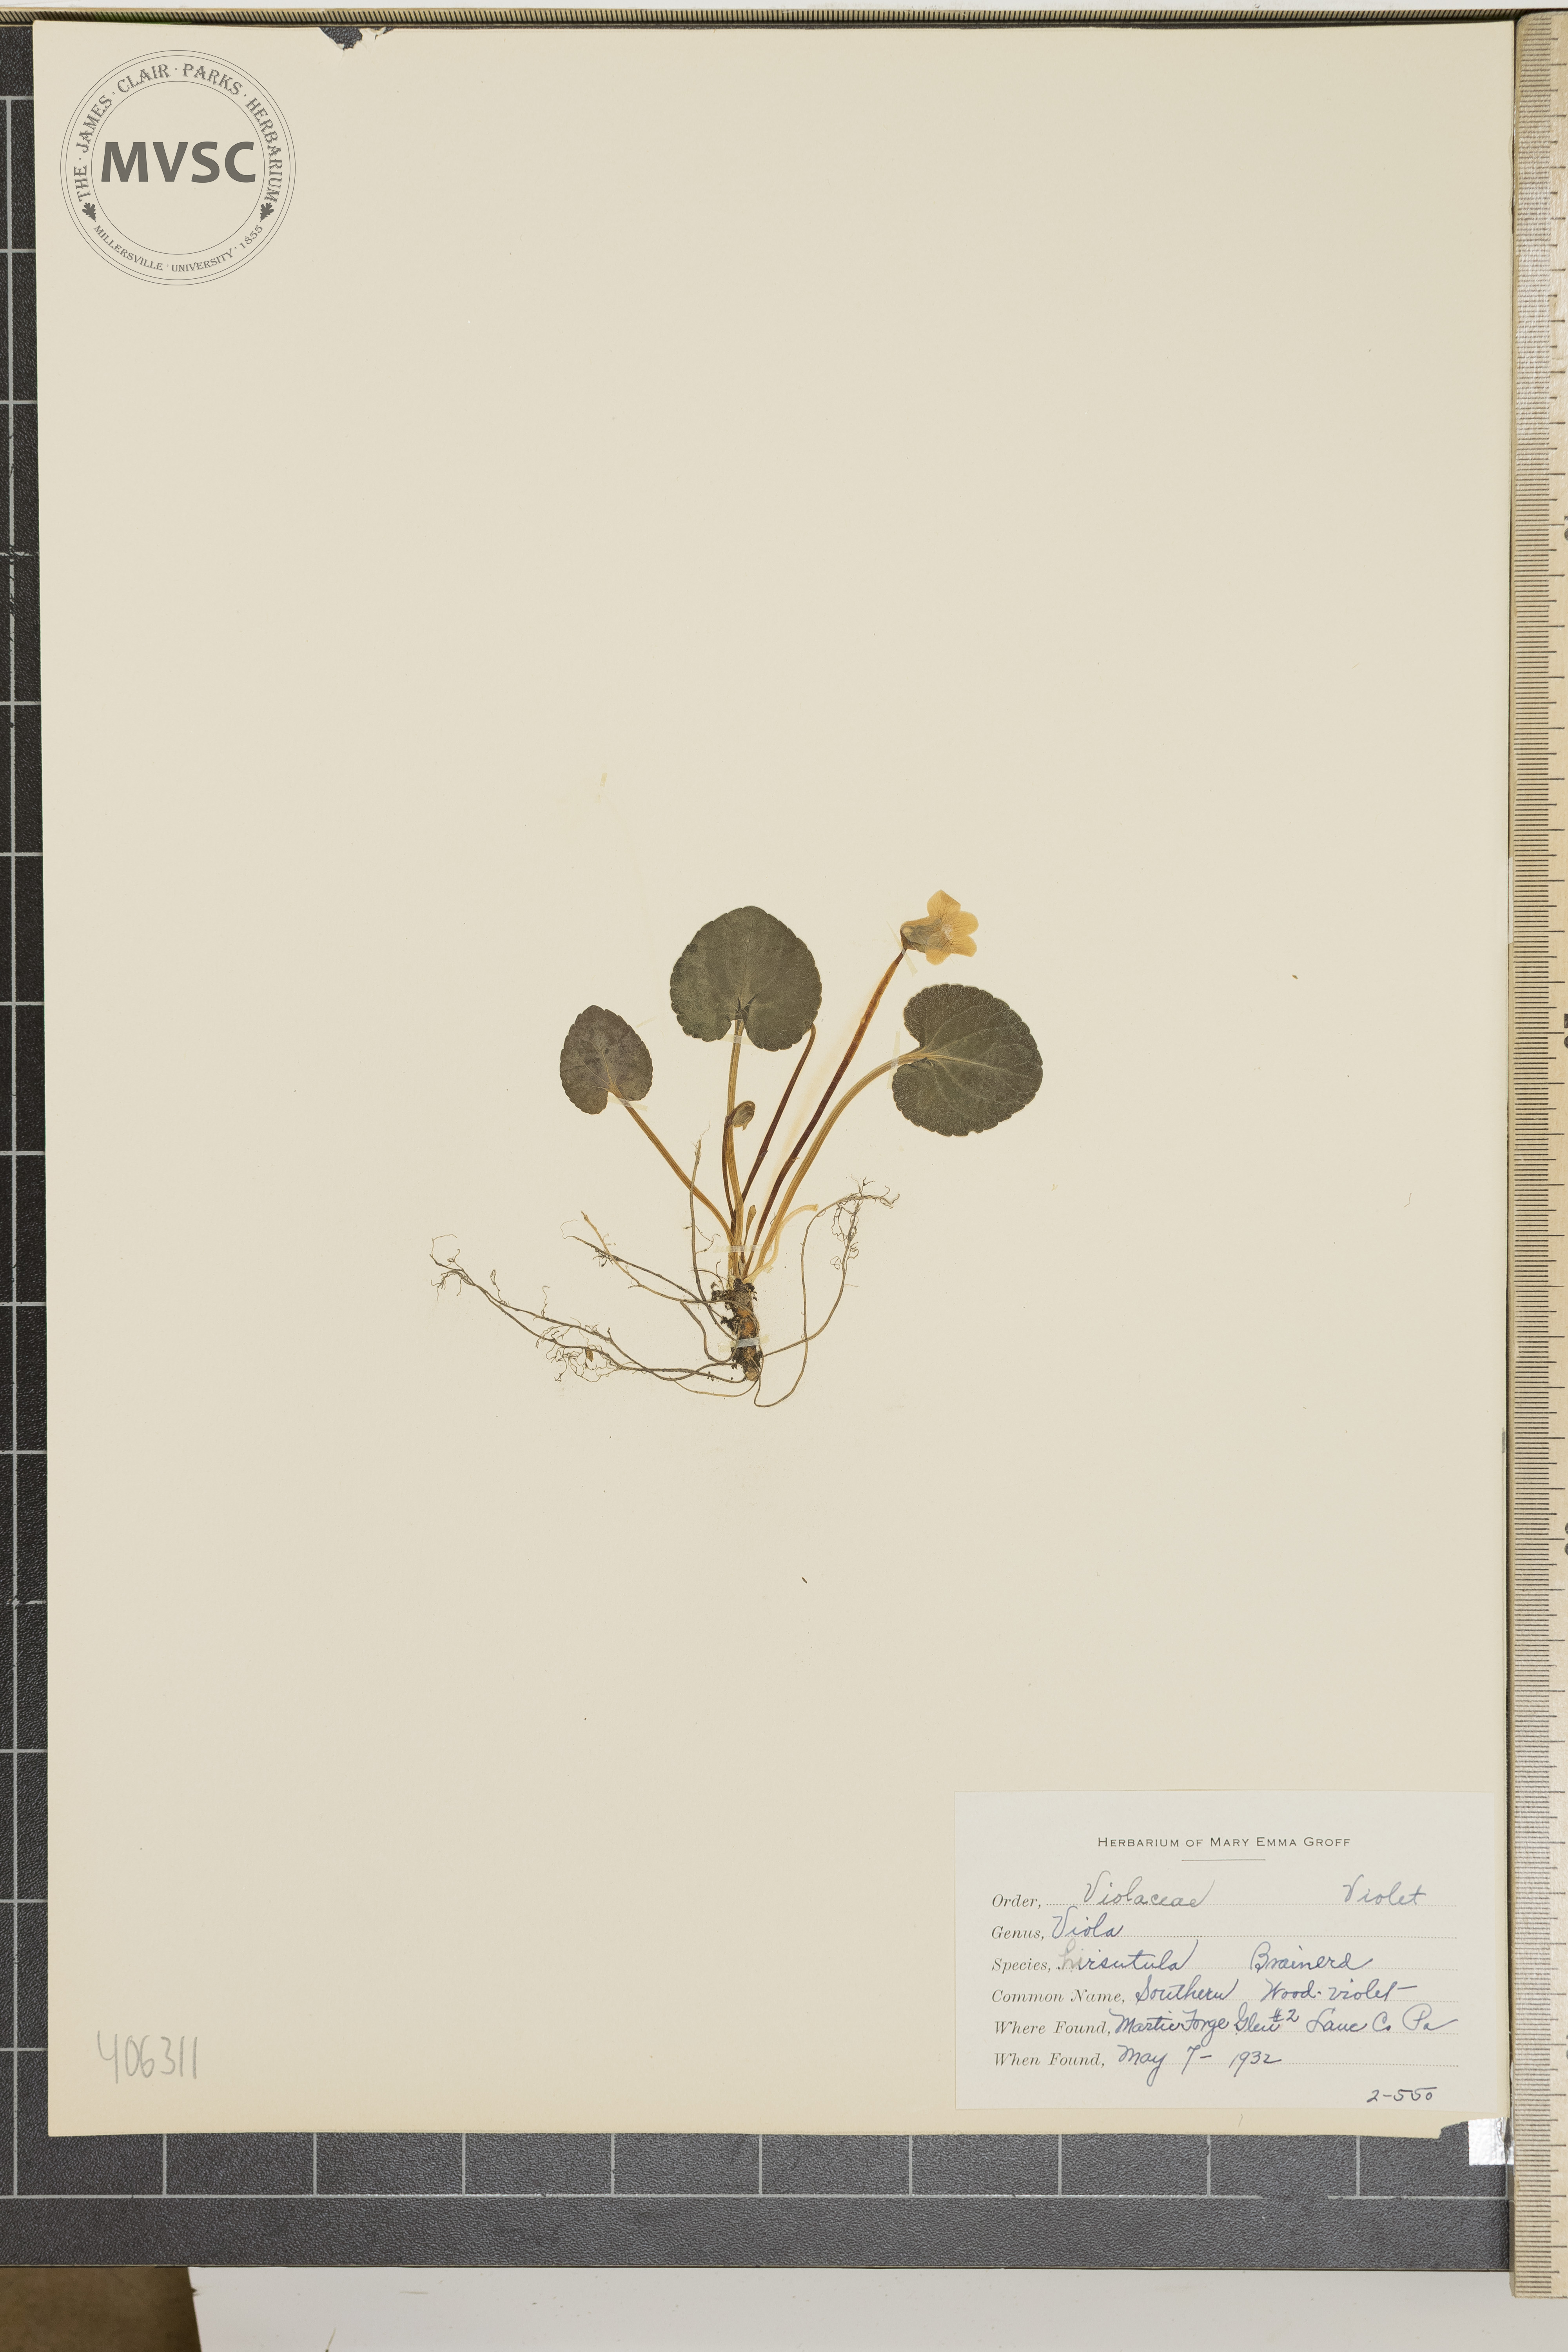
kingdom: Plantae
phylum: Tracheophyta
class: Magnoliopsida
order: Malpighiales
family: Violaceae
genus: Viola
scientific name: Viola hirsutula
